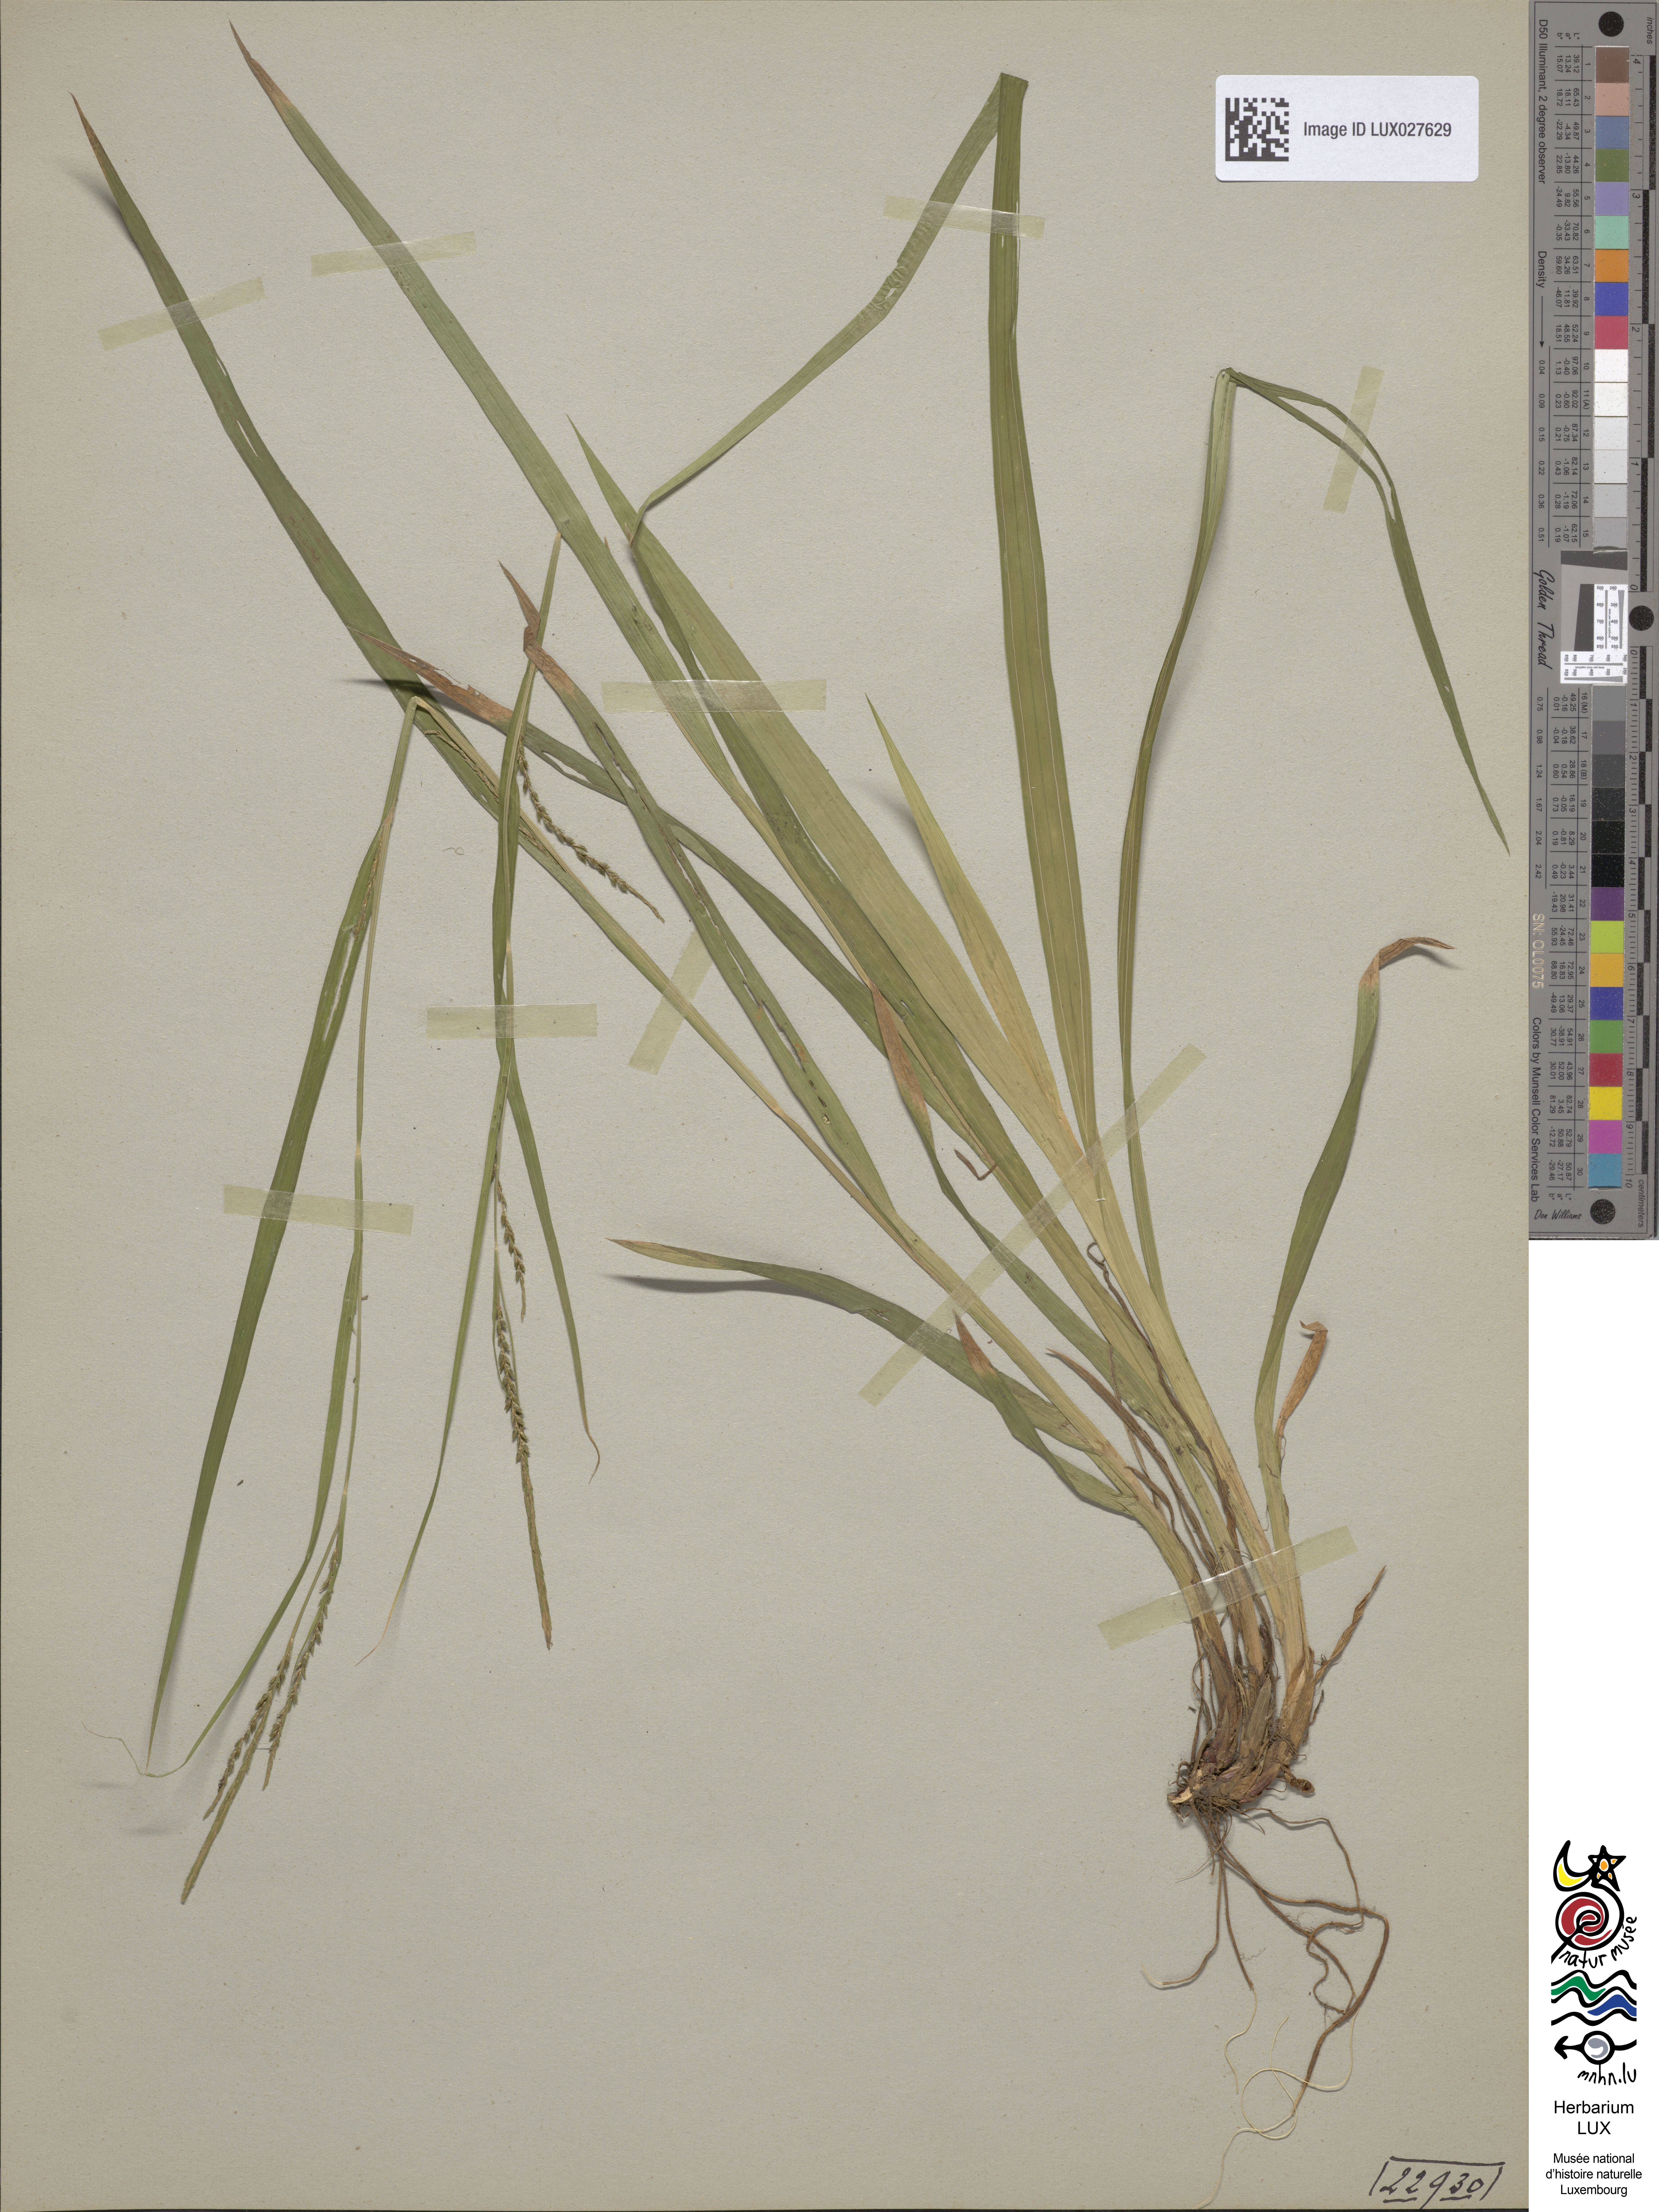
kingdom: Plantae
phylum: Tracheophyta
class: Liliopsida
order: Poales
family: Cyperaceae
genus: Carex
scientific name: Carex strigosa
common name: Thin-spiked wood-sedge
